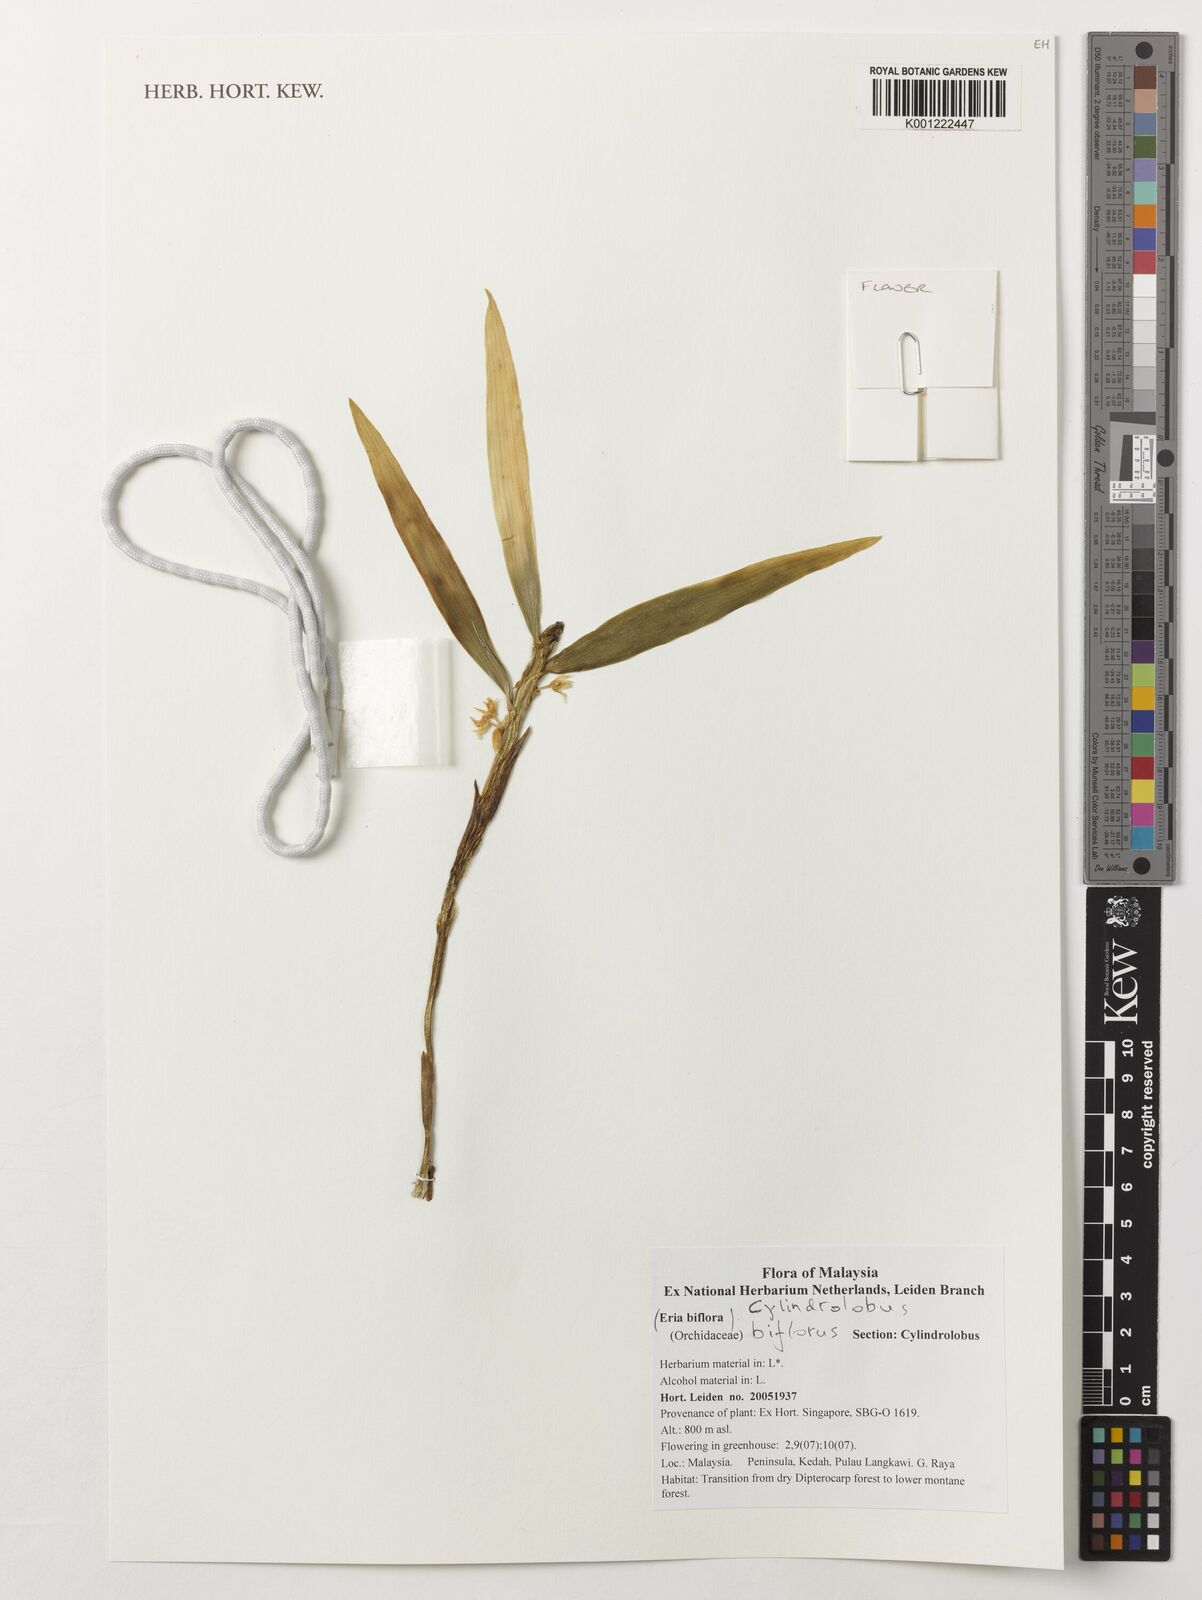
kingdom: Plantae
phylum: Tracheophyta
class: Liliopsida
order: Asparagales
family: Orchidaceae
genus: Cylindrolobus
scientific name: Cylindrolobus biflorus
